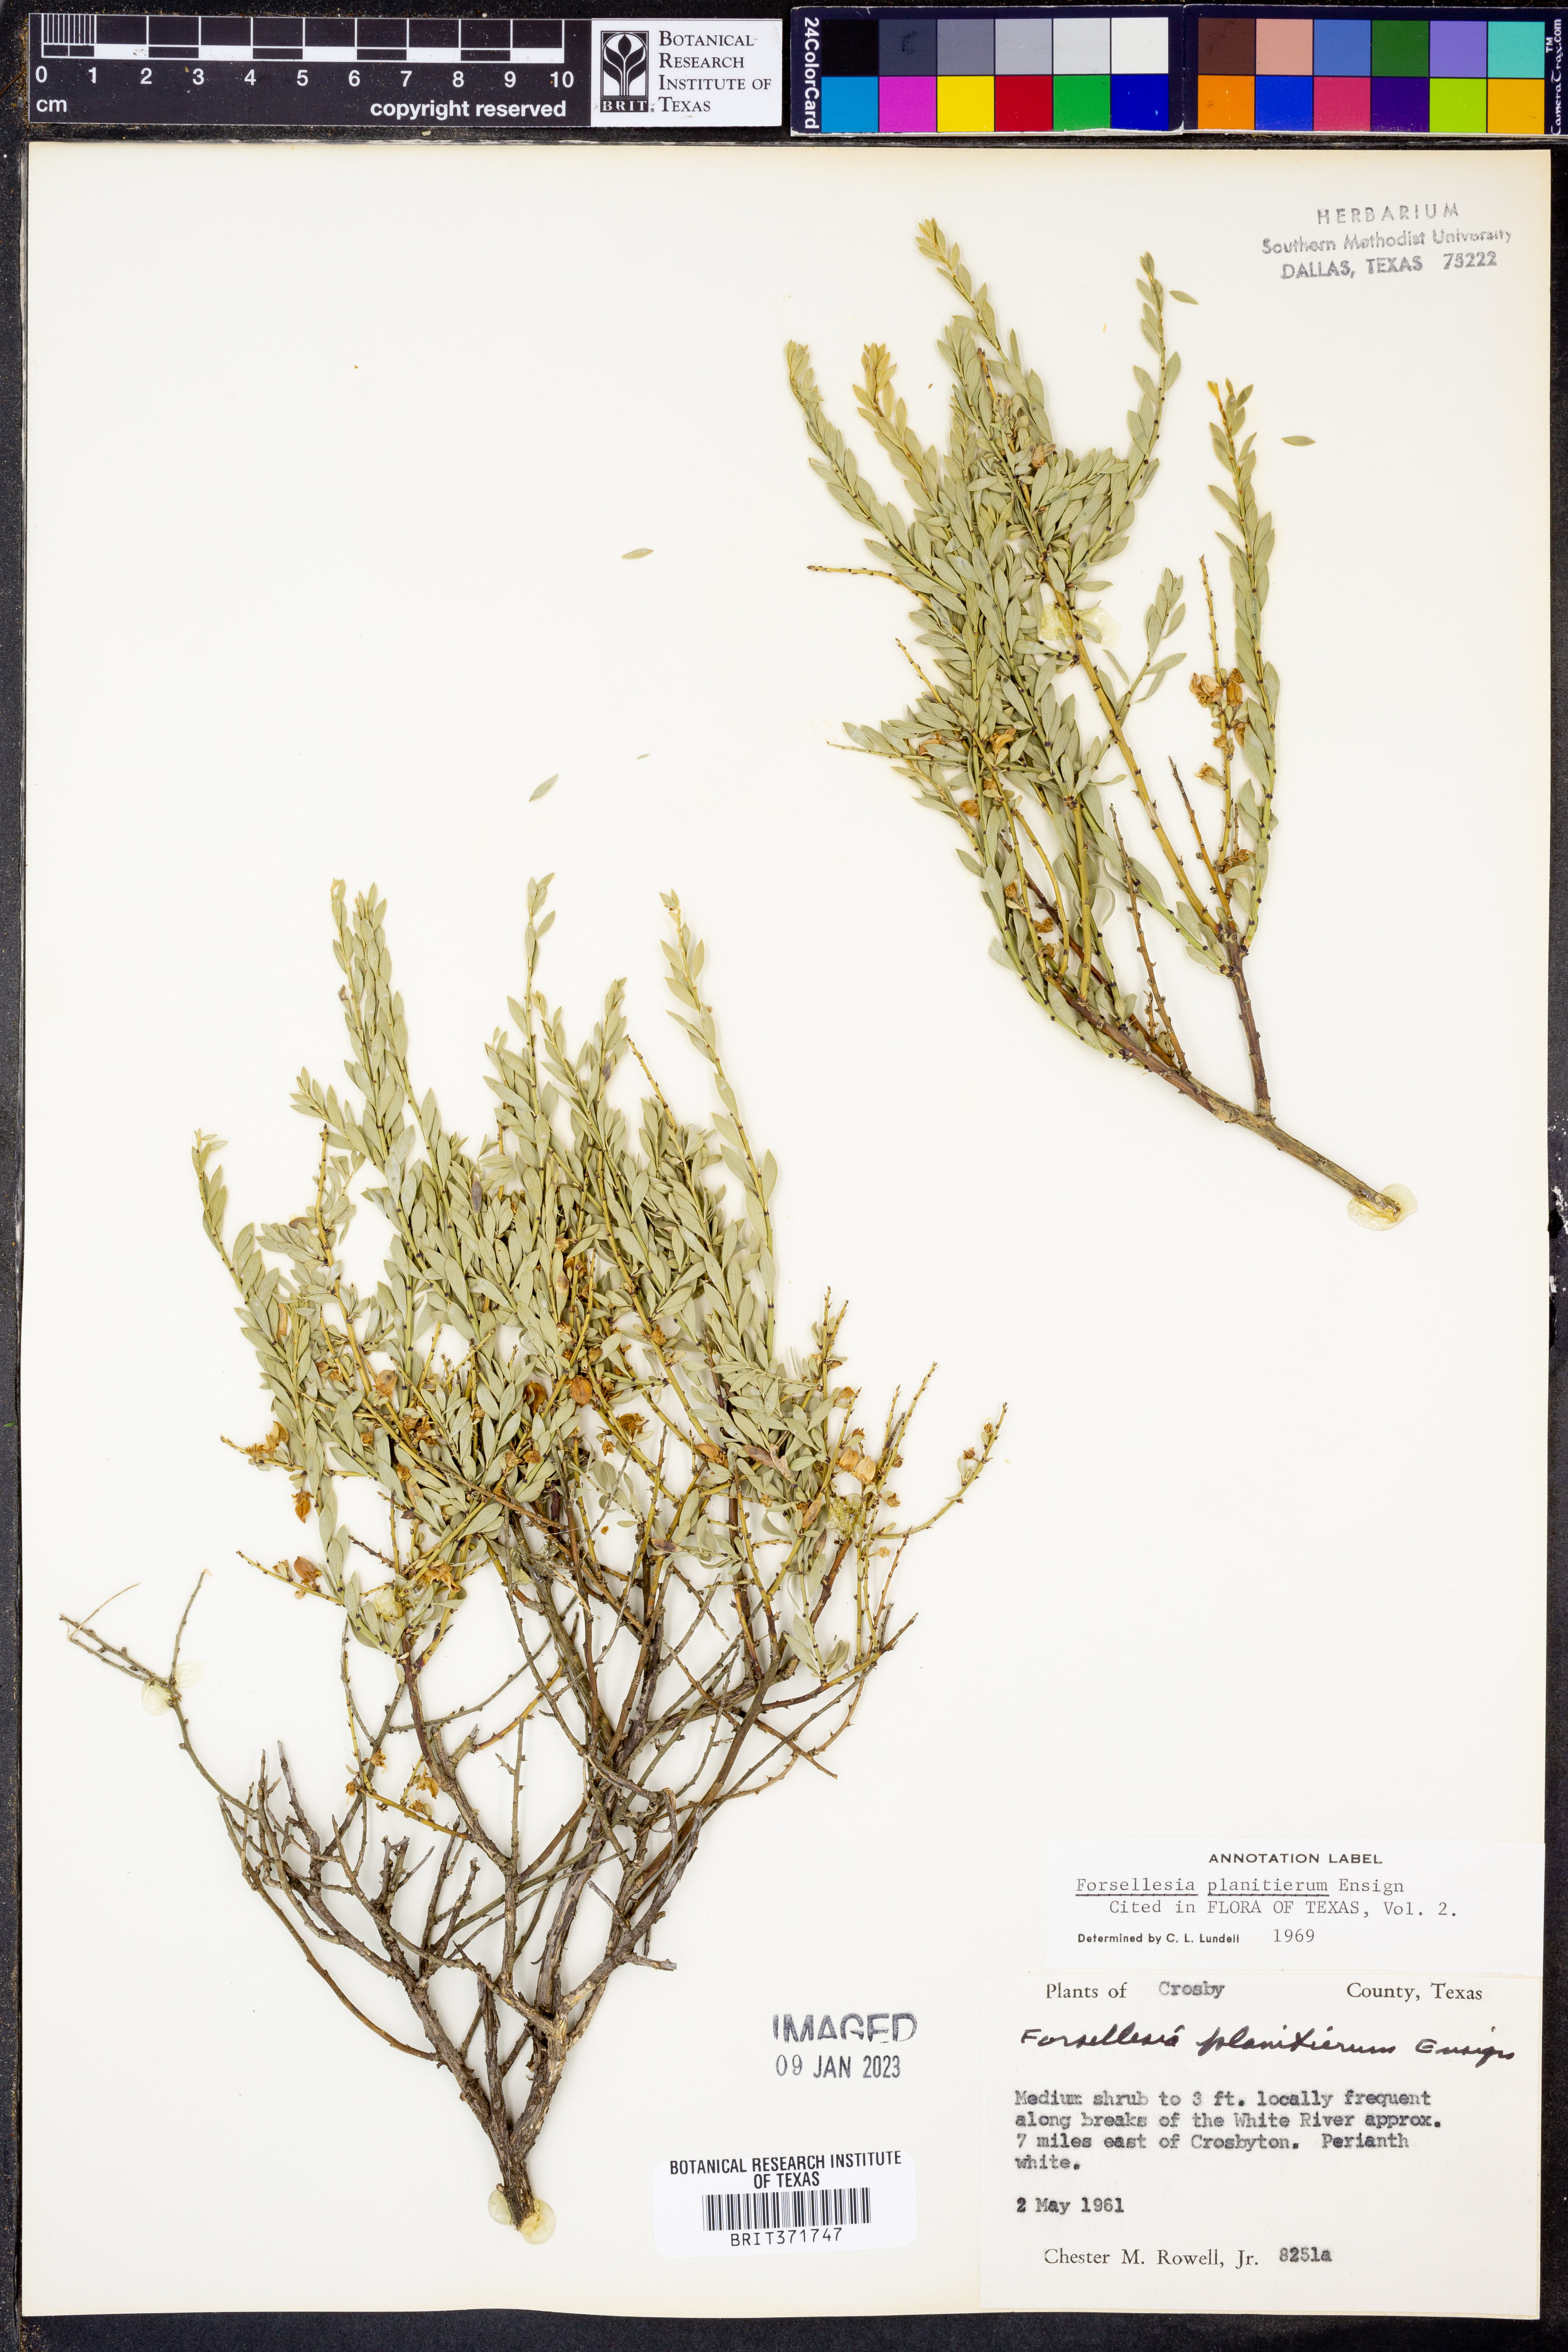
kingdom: Plantae
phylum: Tracheophyta
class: Magnoliopsida
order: Crossosomatales
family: Crossosomataceae
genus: Glossopetalon
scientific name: Glossopetalon spinescens
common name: Spring greasebush
